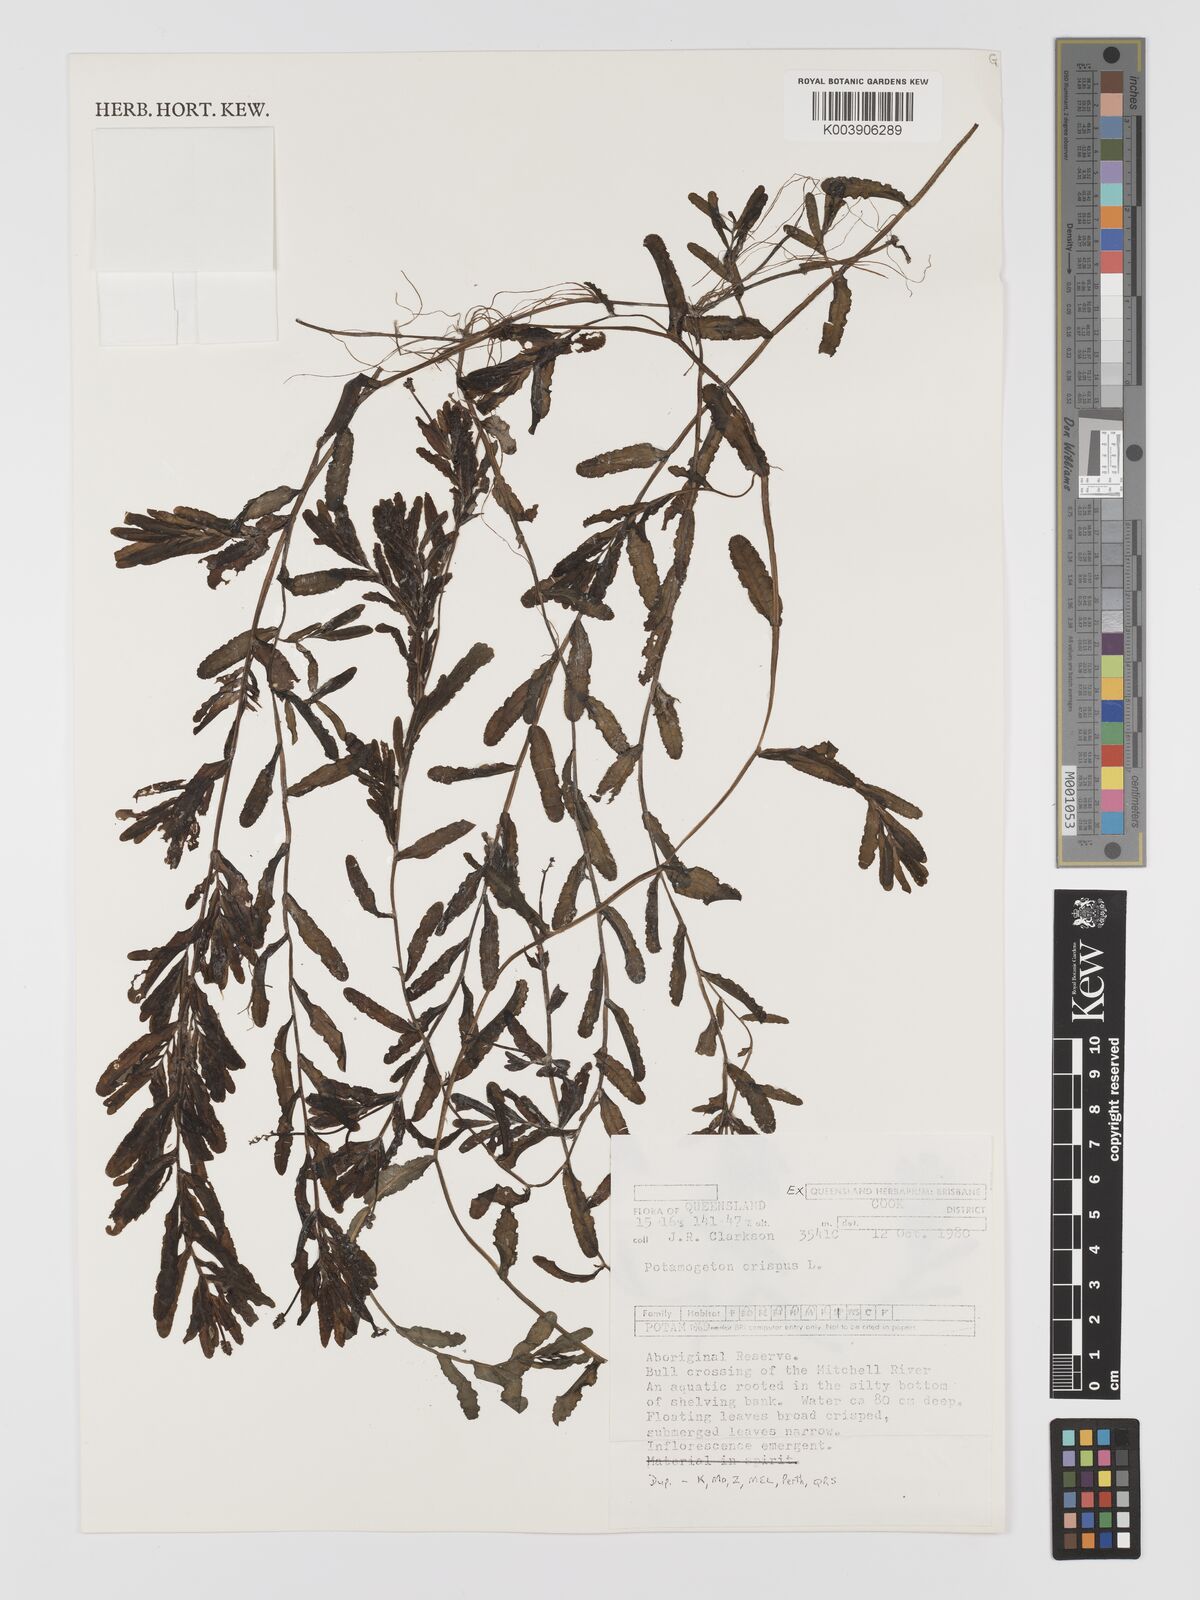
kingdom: Plantae
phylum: Tracheophyta
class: Liliopsida
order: Alismatales
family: Potamogetonaceae
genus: Potamogeton
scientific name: Potamogeton crispus
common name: Curled pondweed
